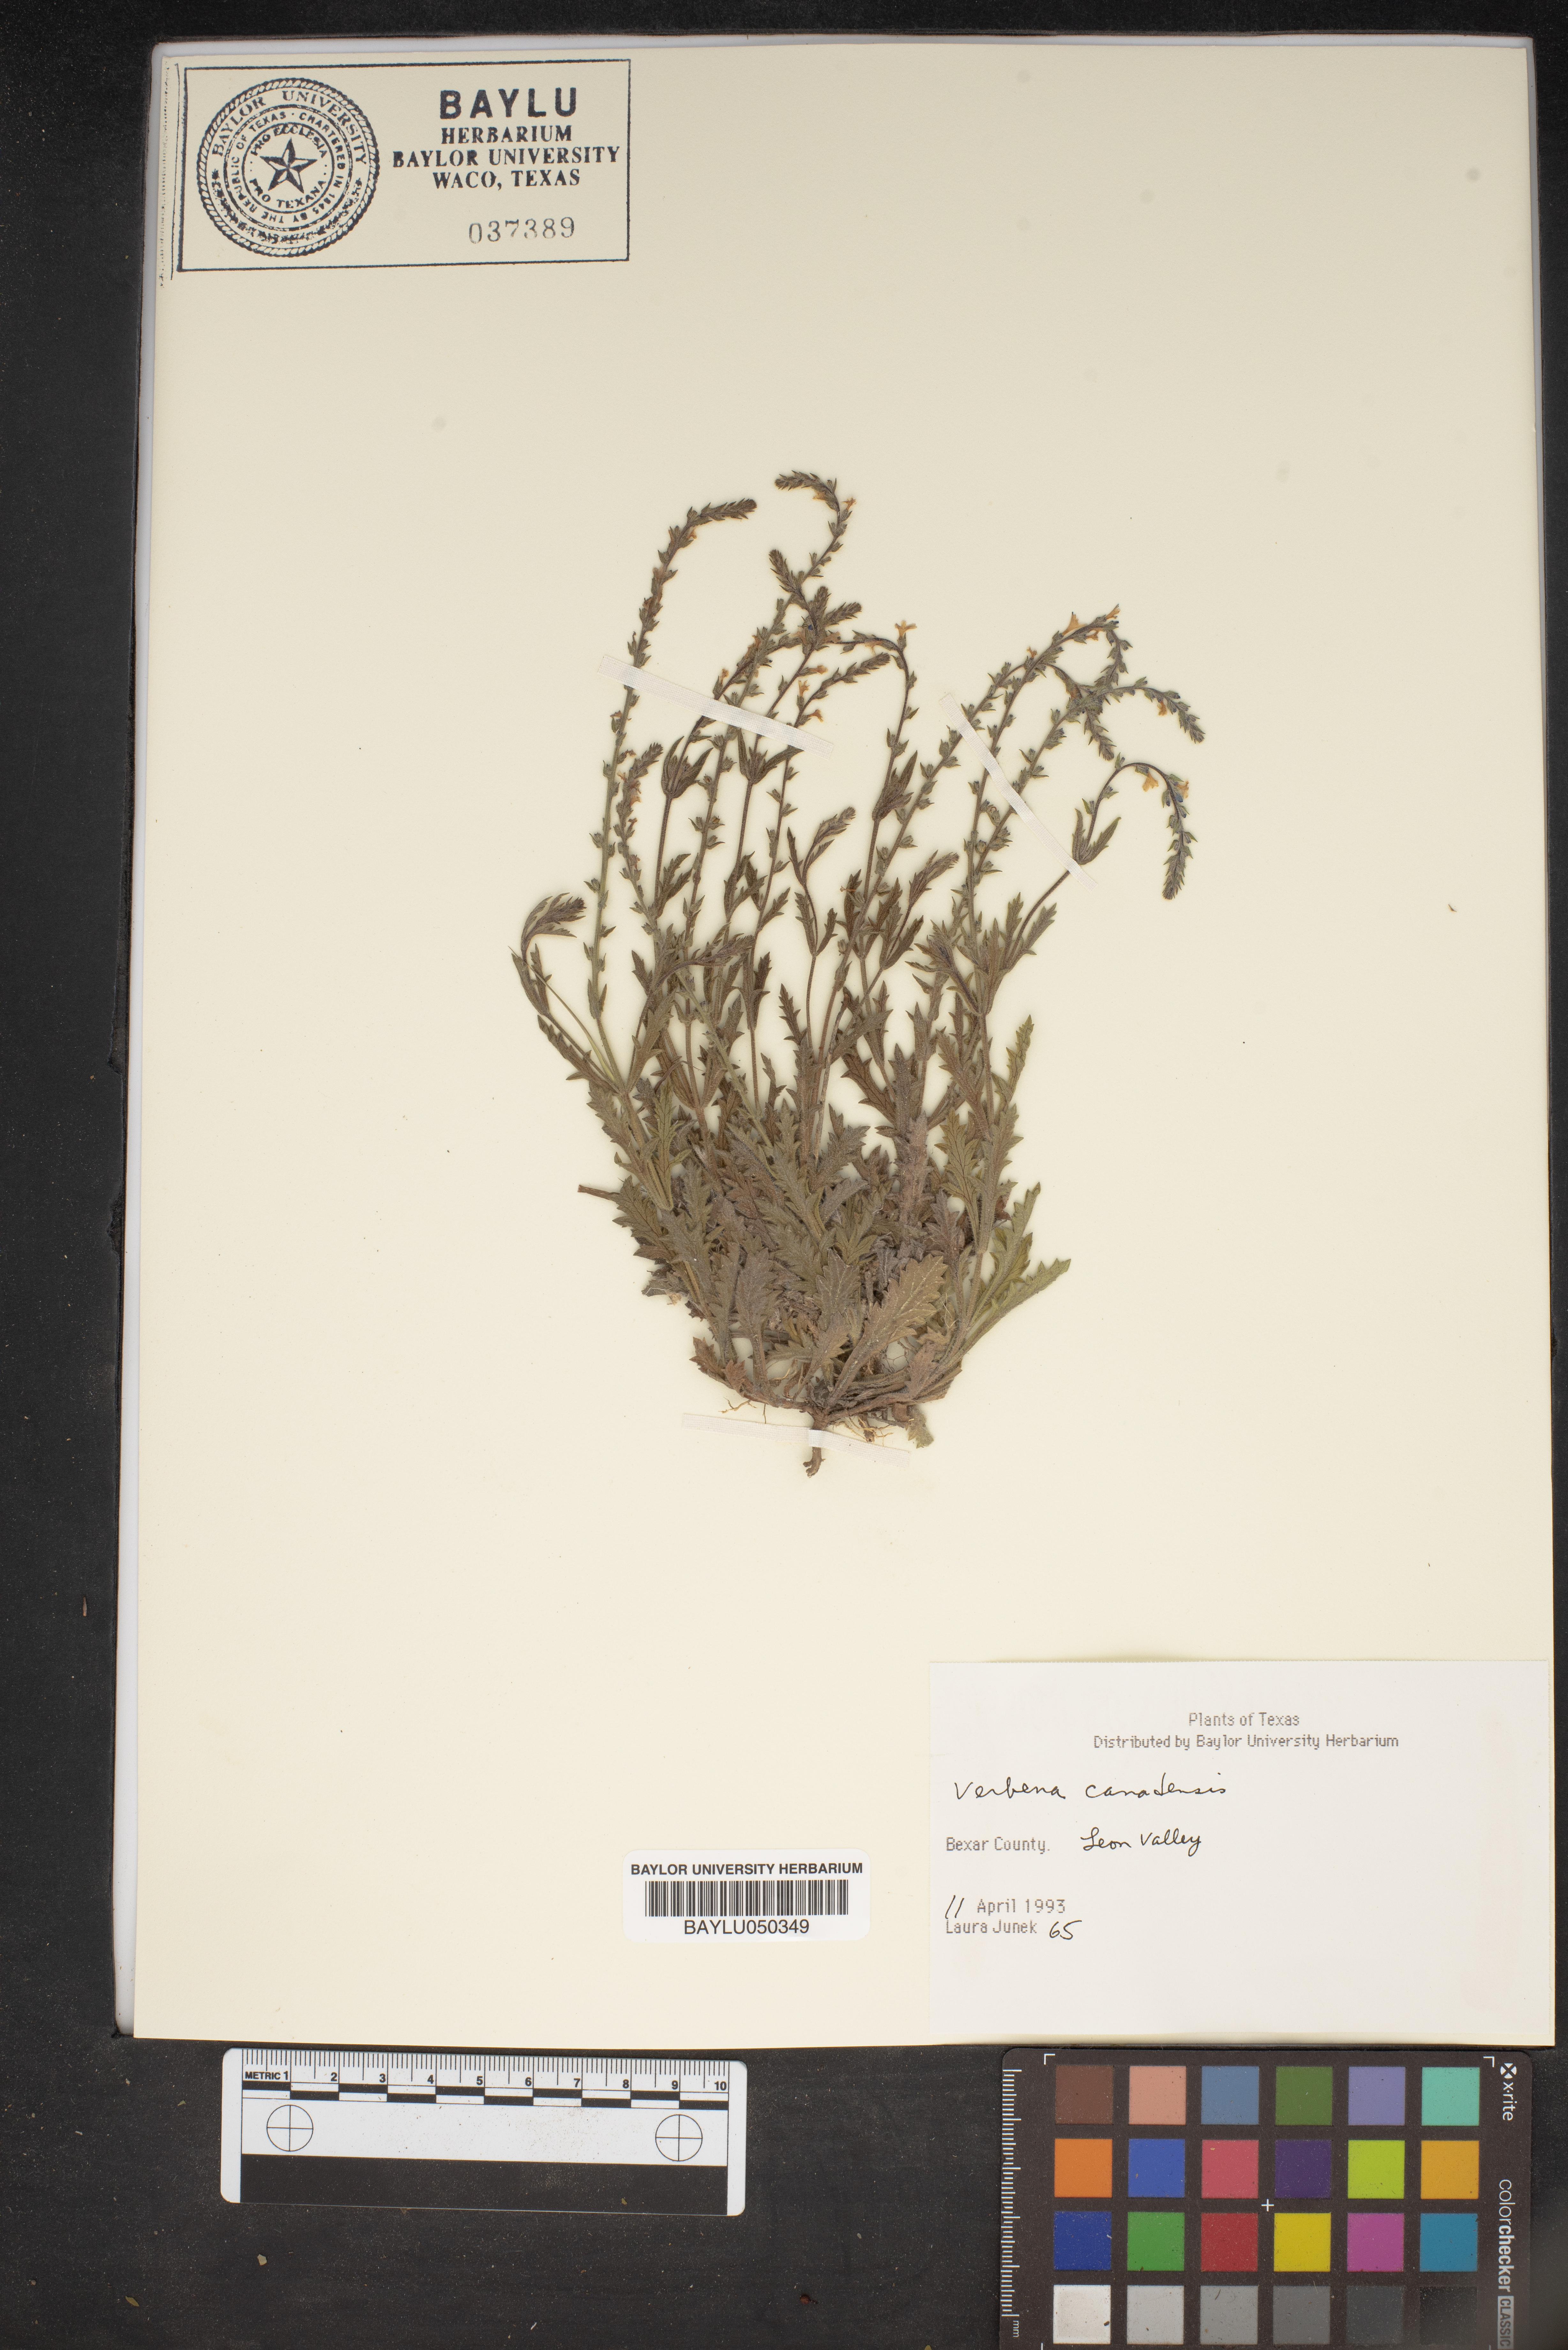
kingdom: Plantae
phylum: Tracheophyta
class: Magnoliopsida
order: Lamiales
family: Verbenaceae
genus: Verbena
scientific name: Verbena canadensis
